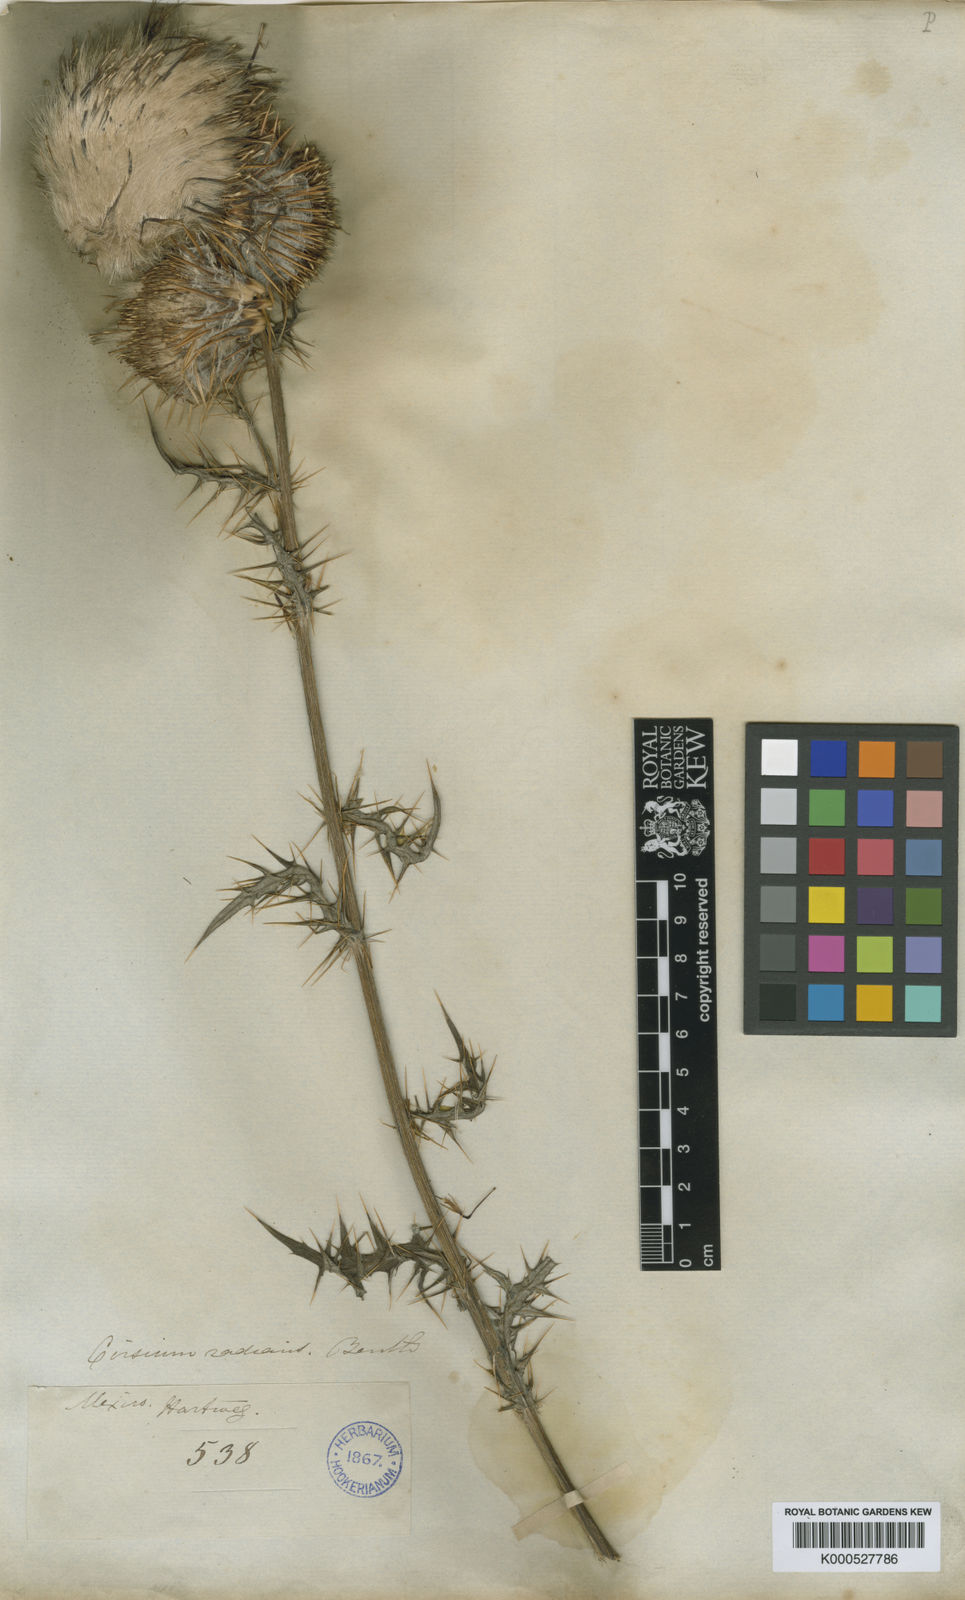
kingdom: Plantae
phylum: Tracheophyta
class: Magnoliopsida
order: Asterales
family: Asteraceae
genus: Cirsium
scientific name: Cirsium radians
